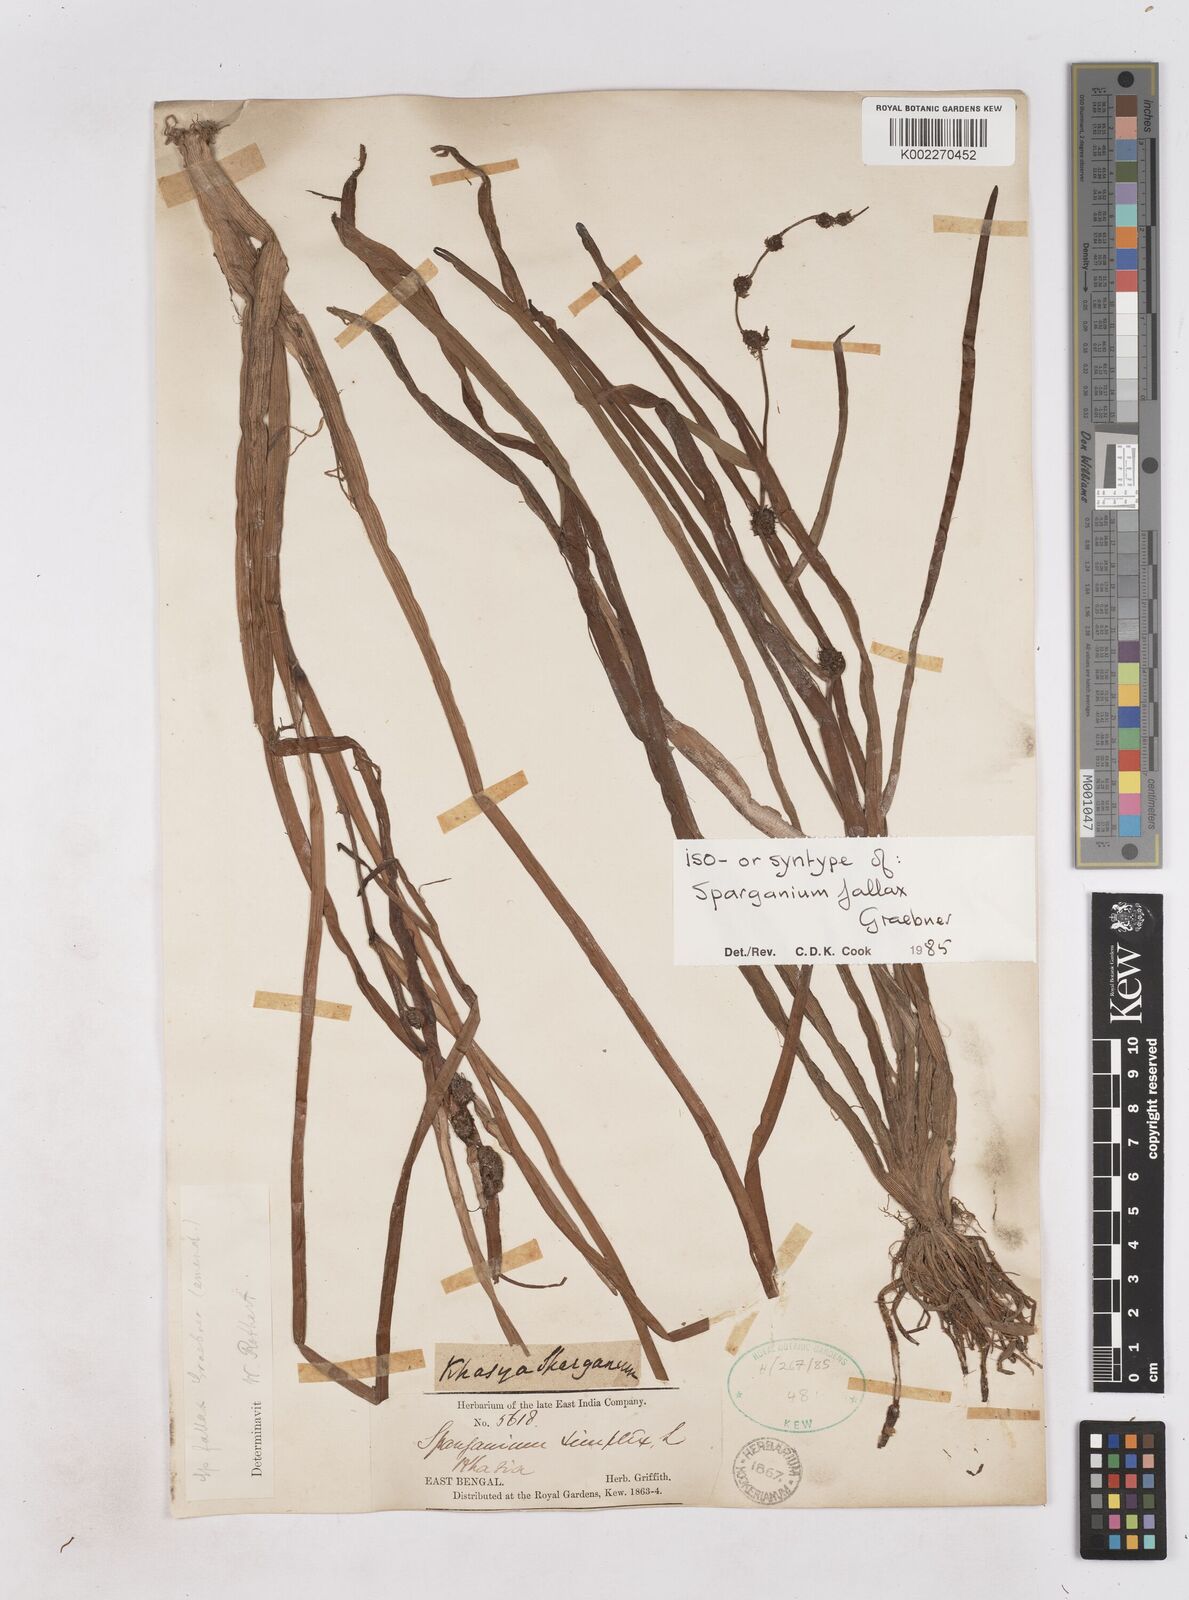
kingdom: Plantae
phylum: Tracheophyta
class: Liliopsida
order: Poales
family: Typhaceae
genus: Sparganium
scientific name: Sparganium fallax
